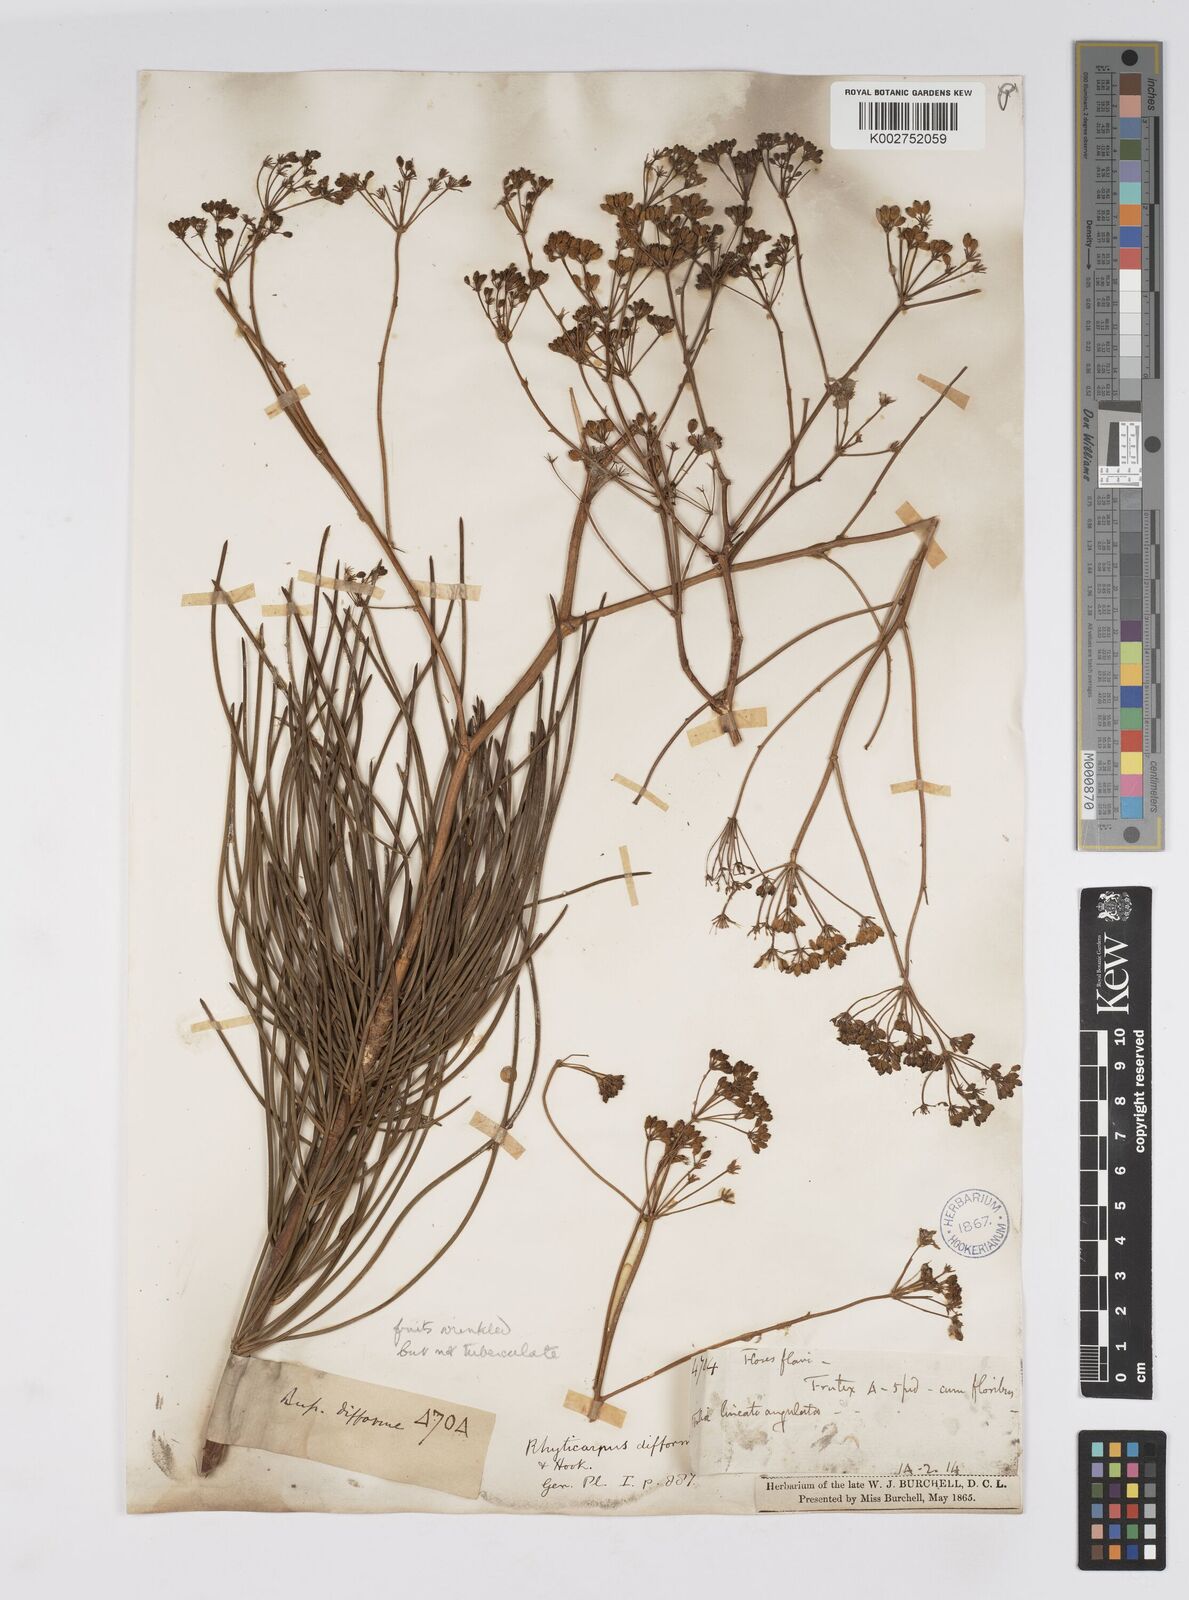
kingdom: Plantae
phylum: Tracheophyta
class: Magnoliopsida
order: Apiales
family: Apiaceae
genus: Anginon
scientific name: Anginon swellendamense
